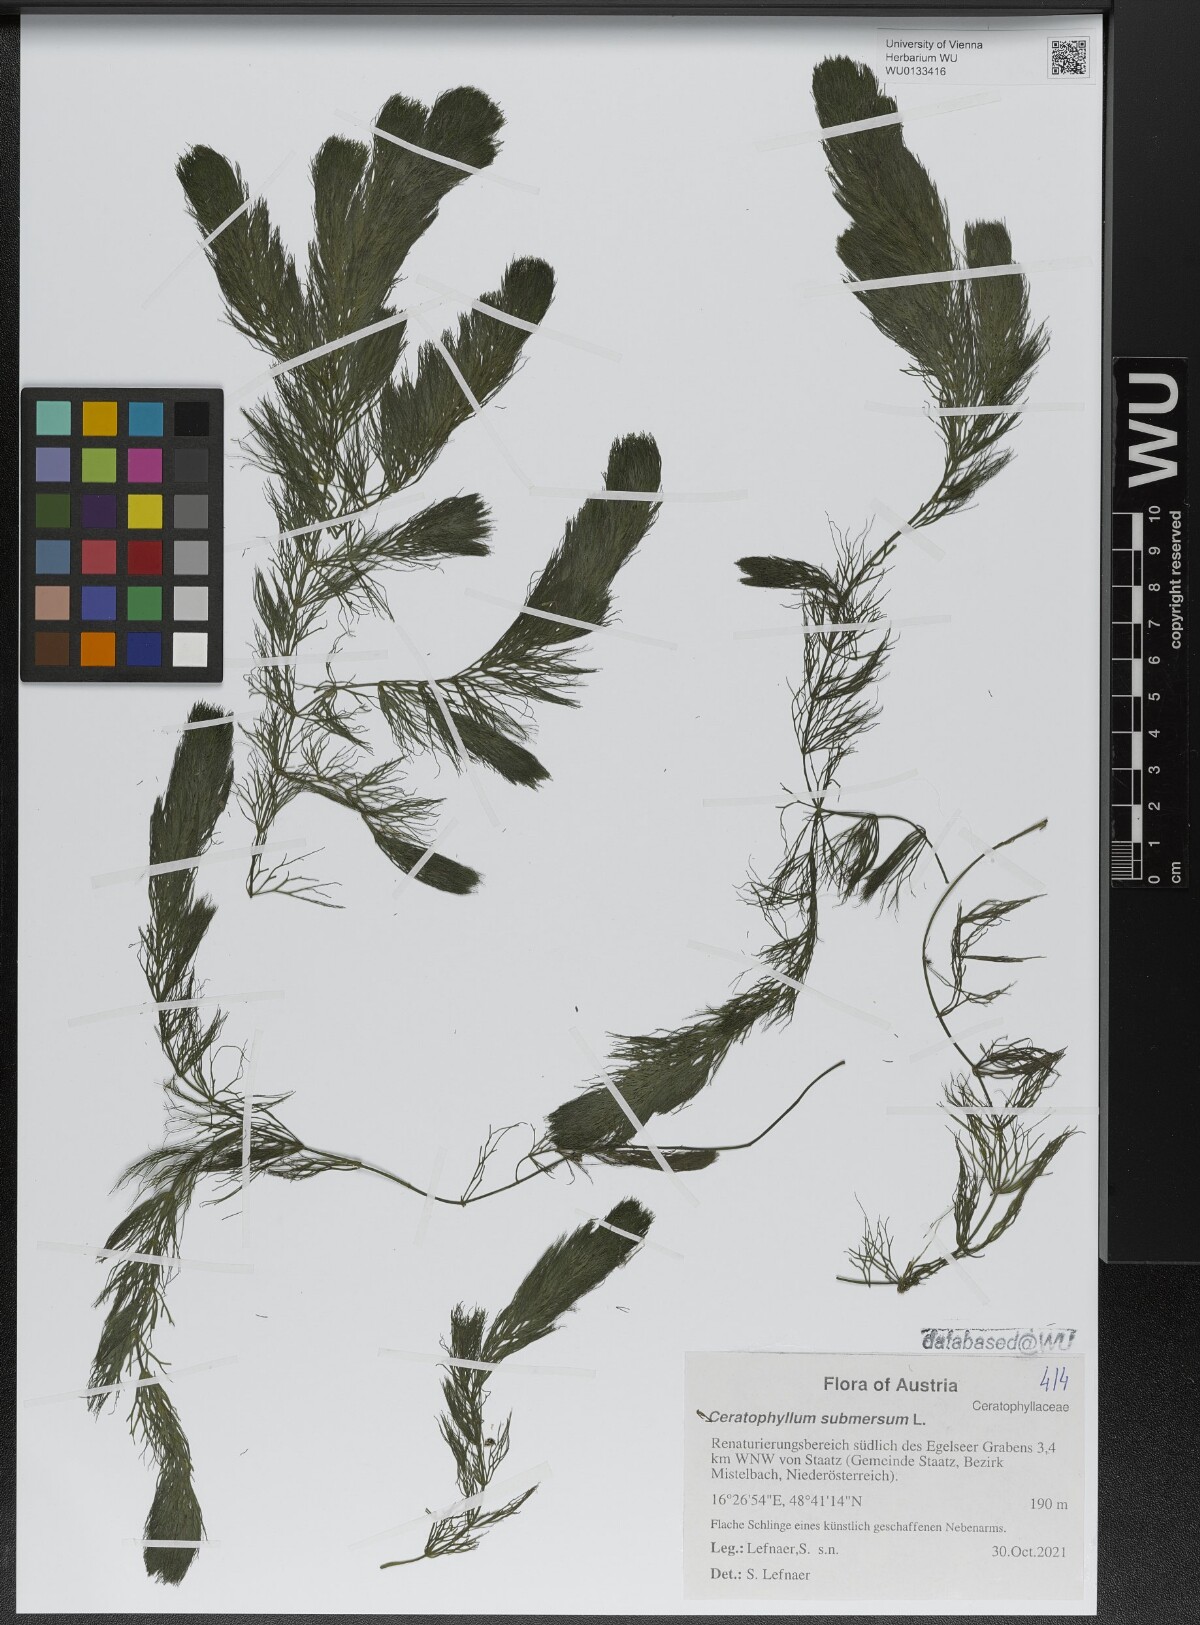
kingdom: Plantae
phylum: Tracheophyta
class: Magnoliopsida
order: Ceratophyllales
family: Ceratophyllaceae
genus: Ceratophyllum
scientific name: Ceratophyllum submersum
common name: Soft hornwort
